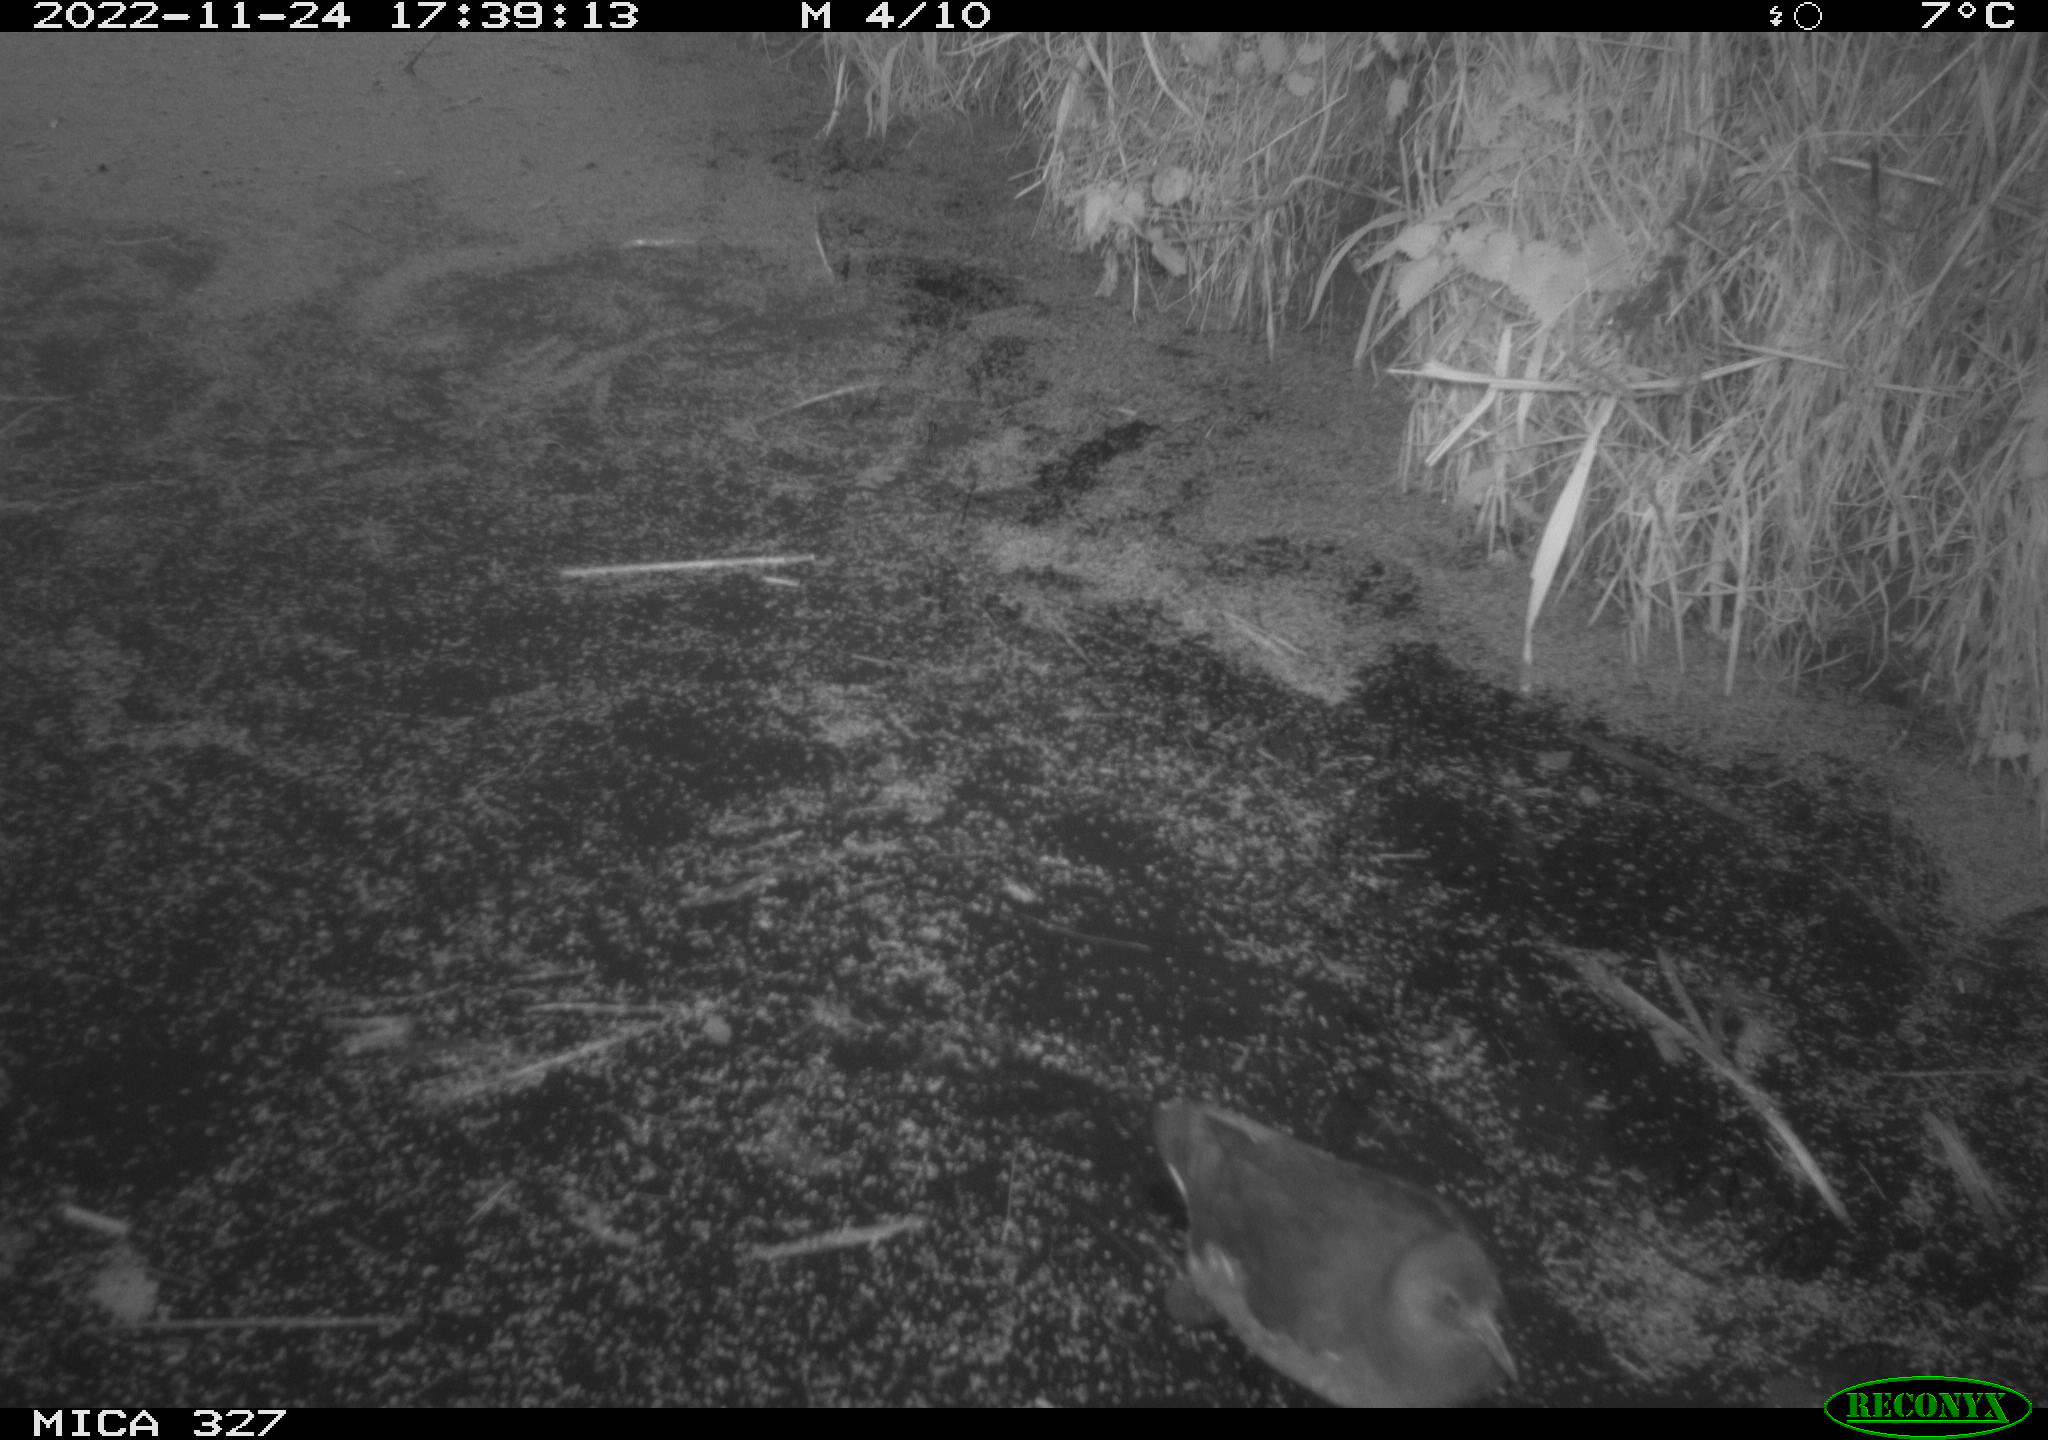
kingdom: Animalia
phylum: Chordata
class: Aves
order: Gruiformes
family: Rallidae
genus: Gallinula
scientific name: Gallinula chloropus
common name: Common moorhen
